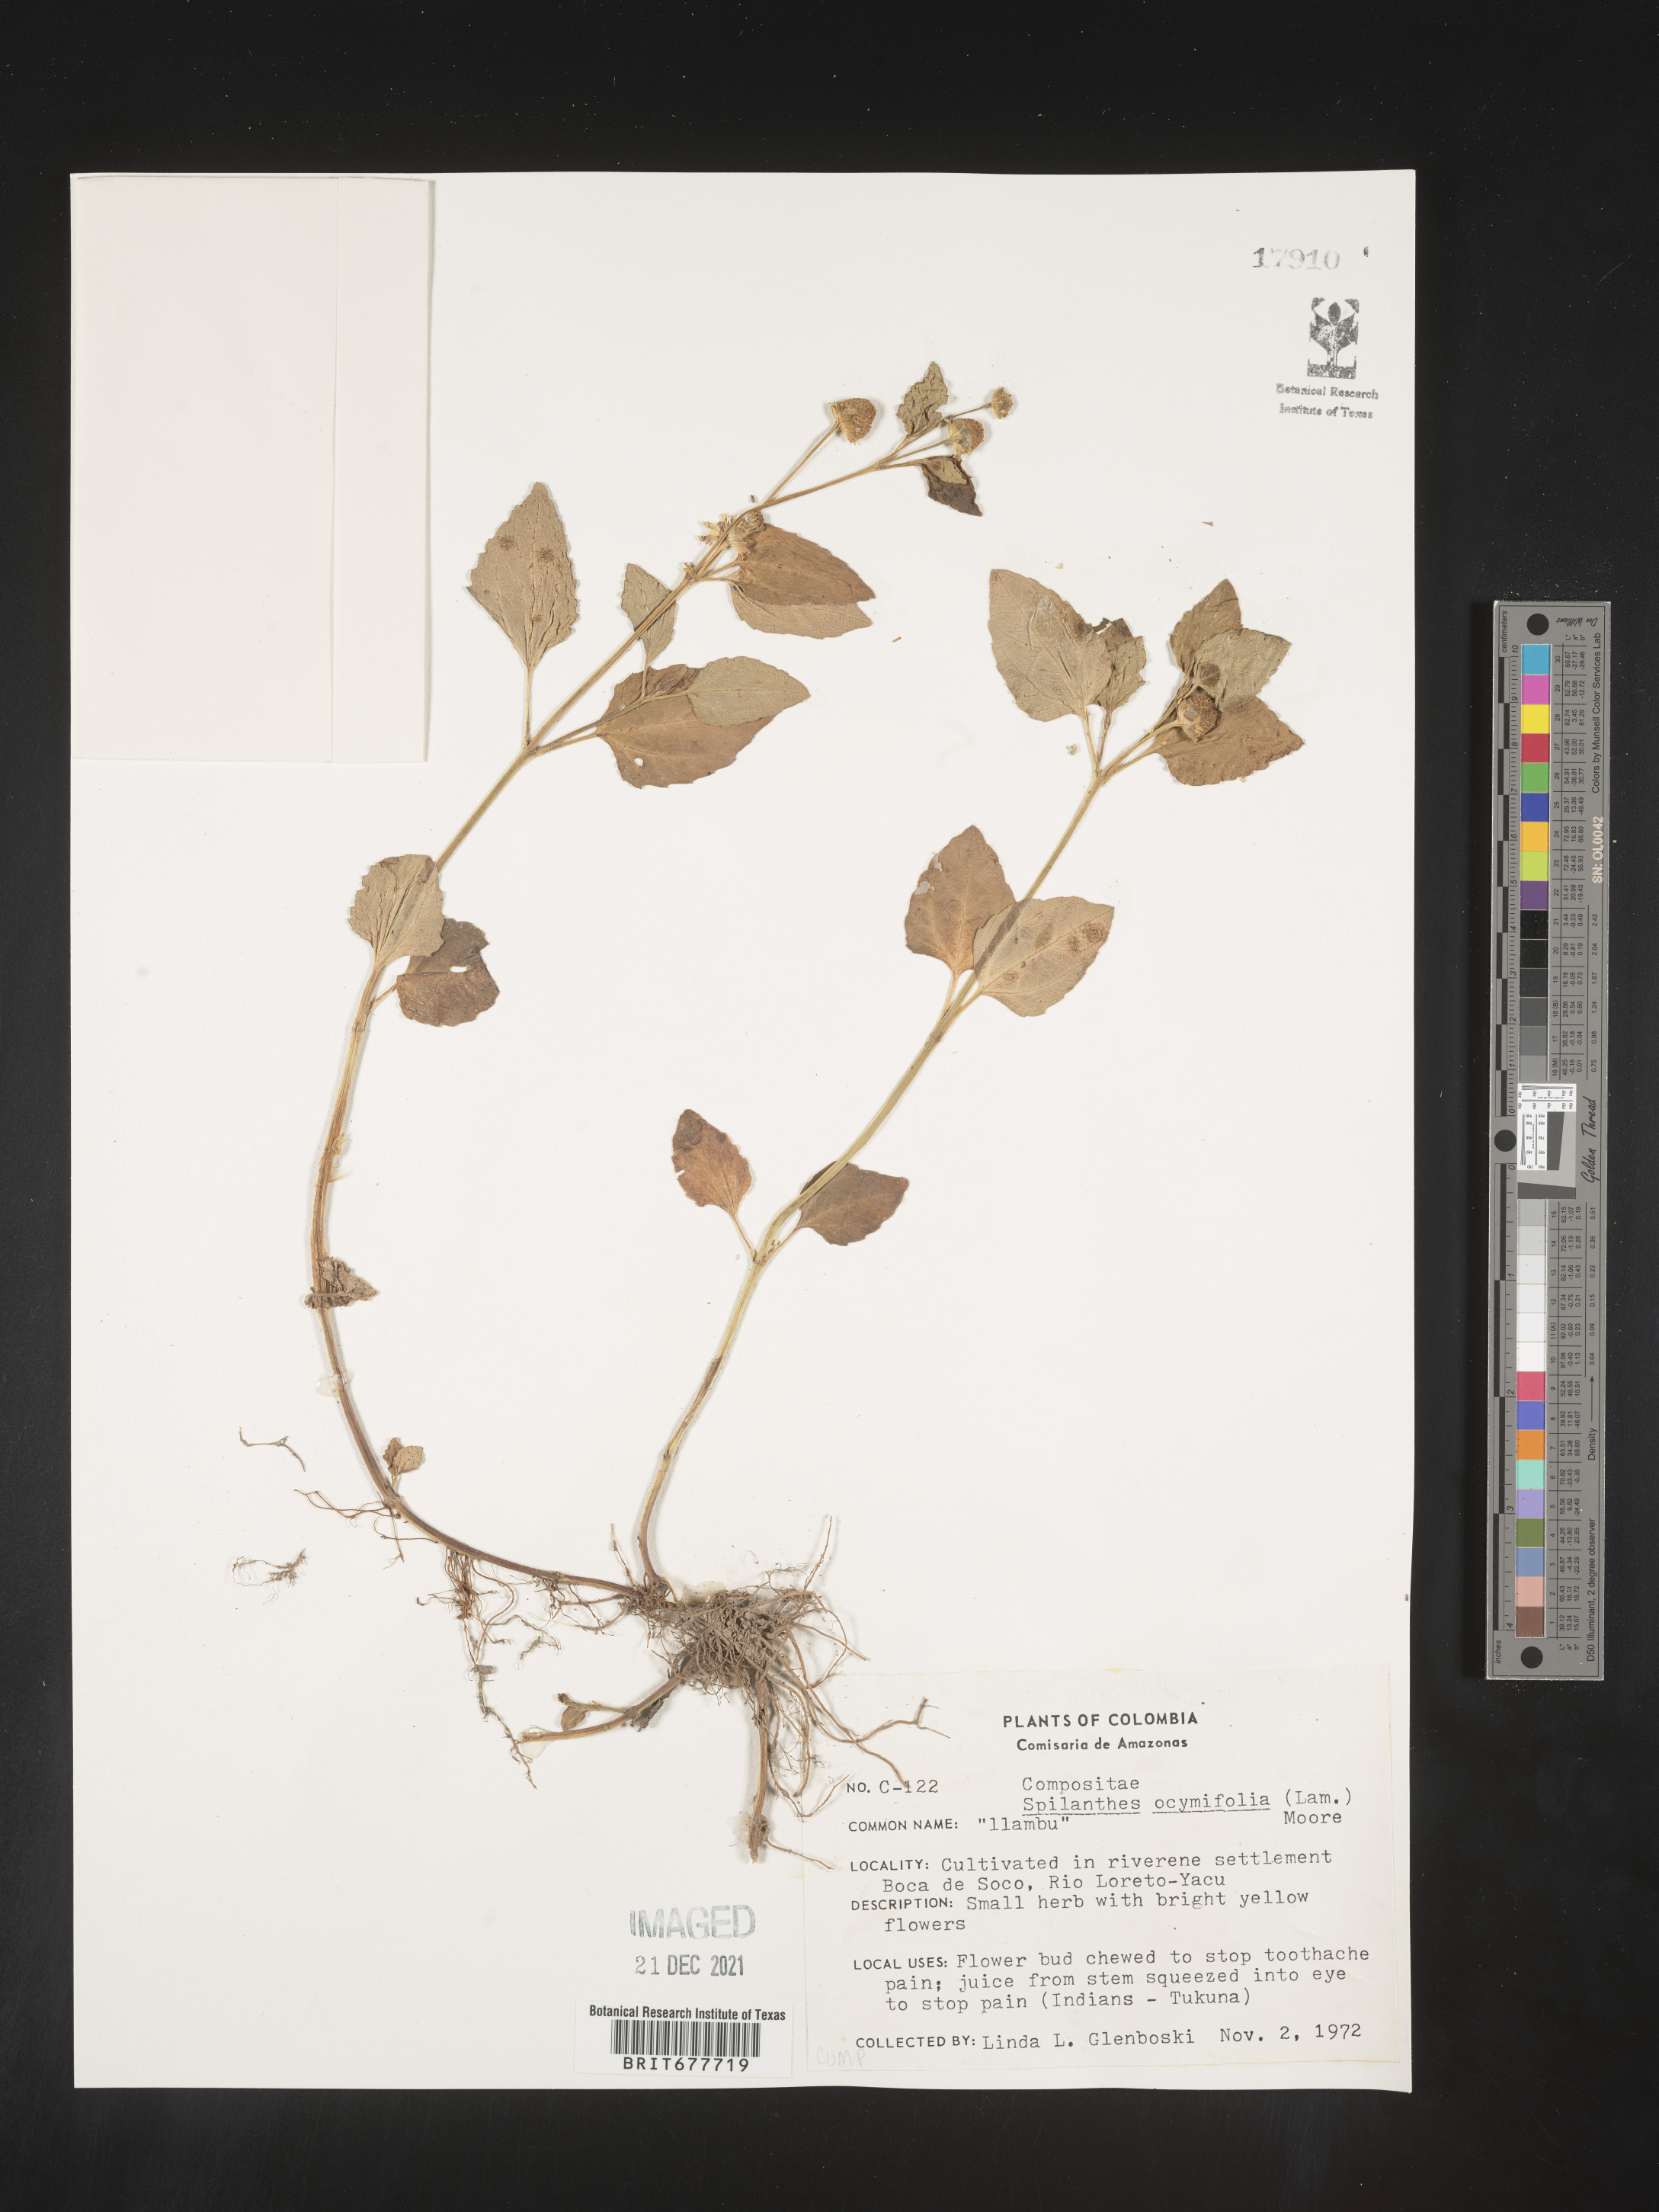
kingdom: Plantae
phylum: Tracheophyta
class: Magnoliopsida
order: Asterales
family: Asteraceae
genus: Spilanthes
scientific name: Spilanthes
